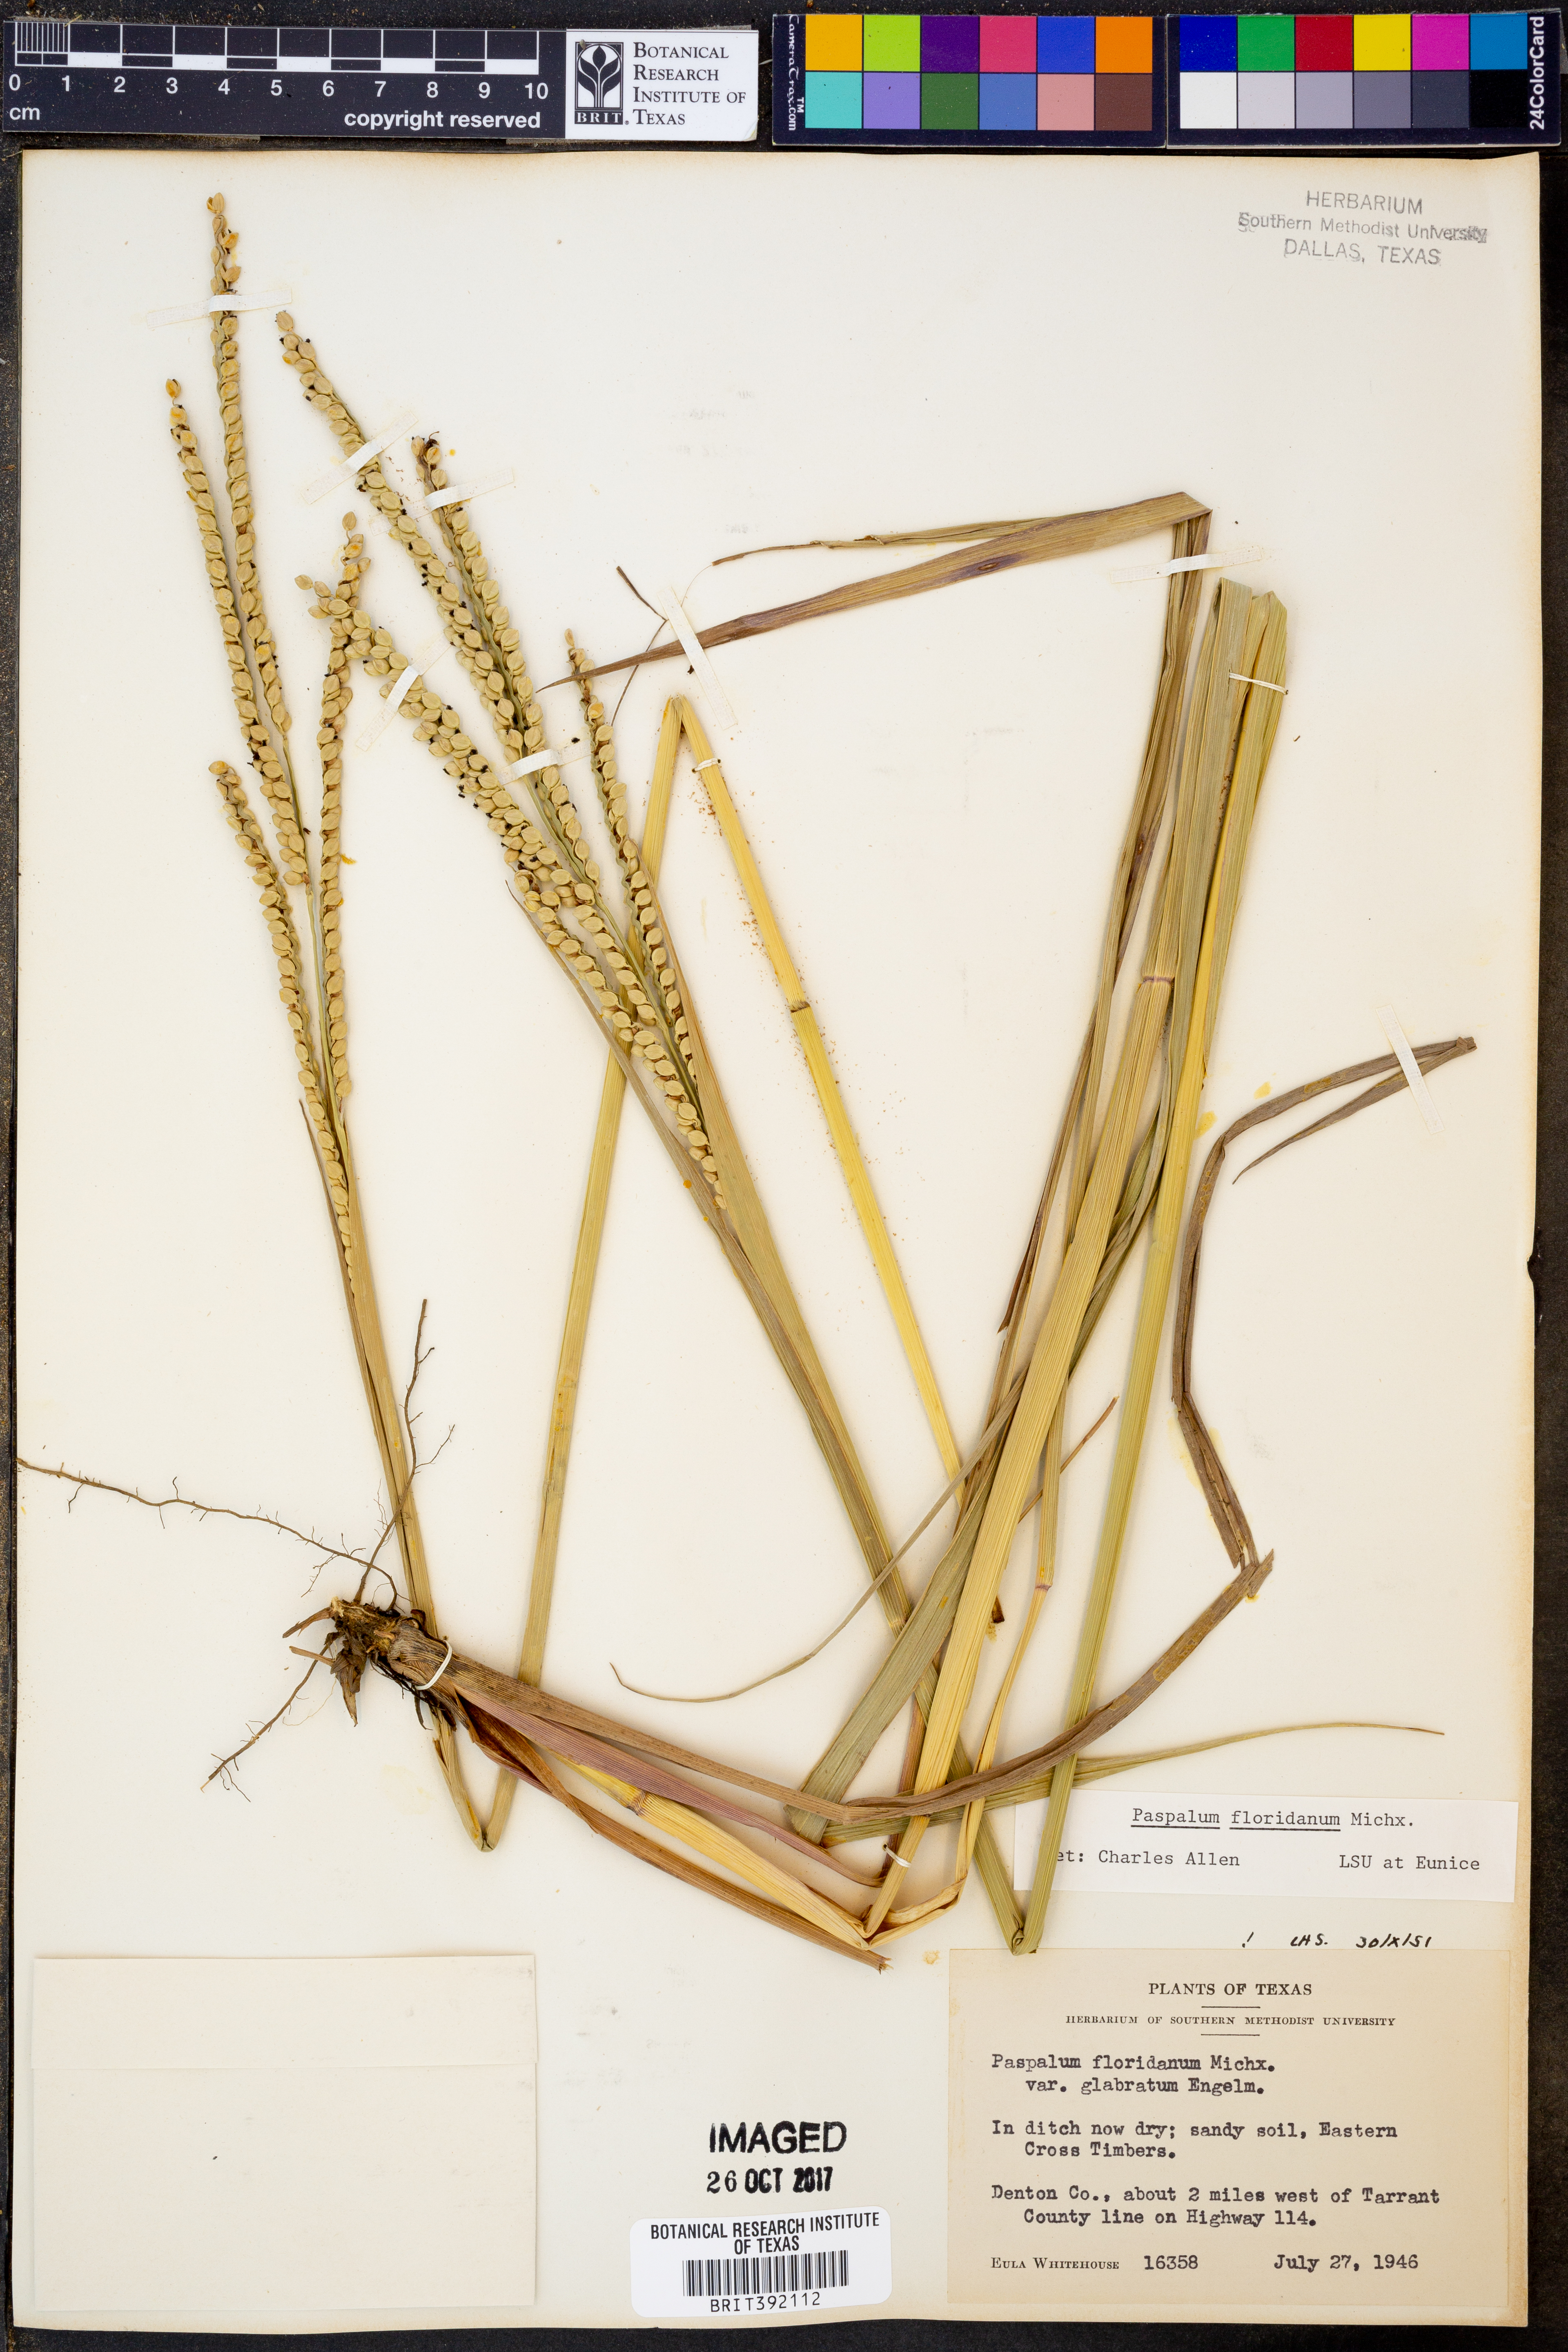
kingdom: Plantae
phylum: Tracheophyta
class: Liliopsida
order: Poales
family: Poaceae
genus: Paspalum
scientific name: Paspalum floridanum
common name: Florida paspalum
